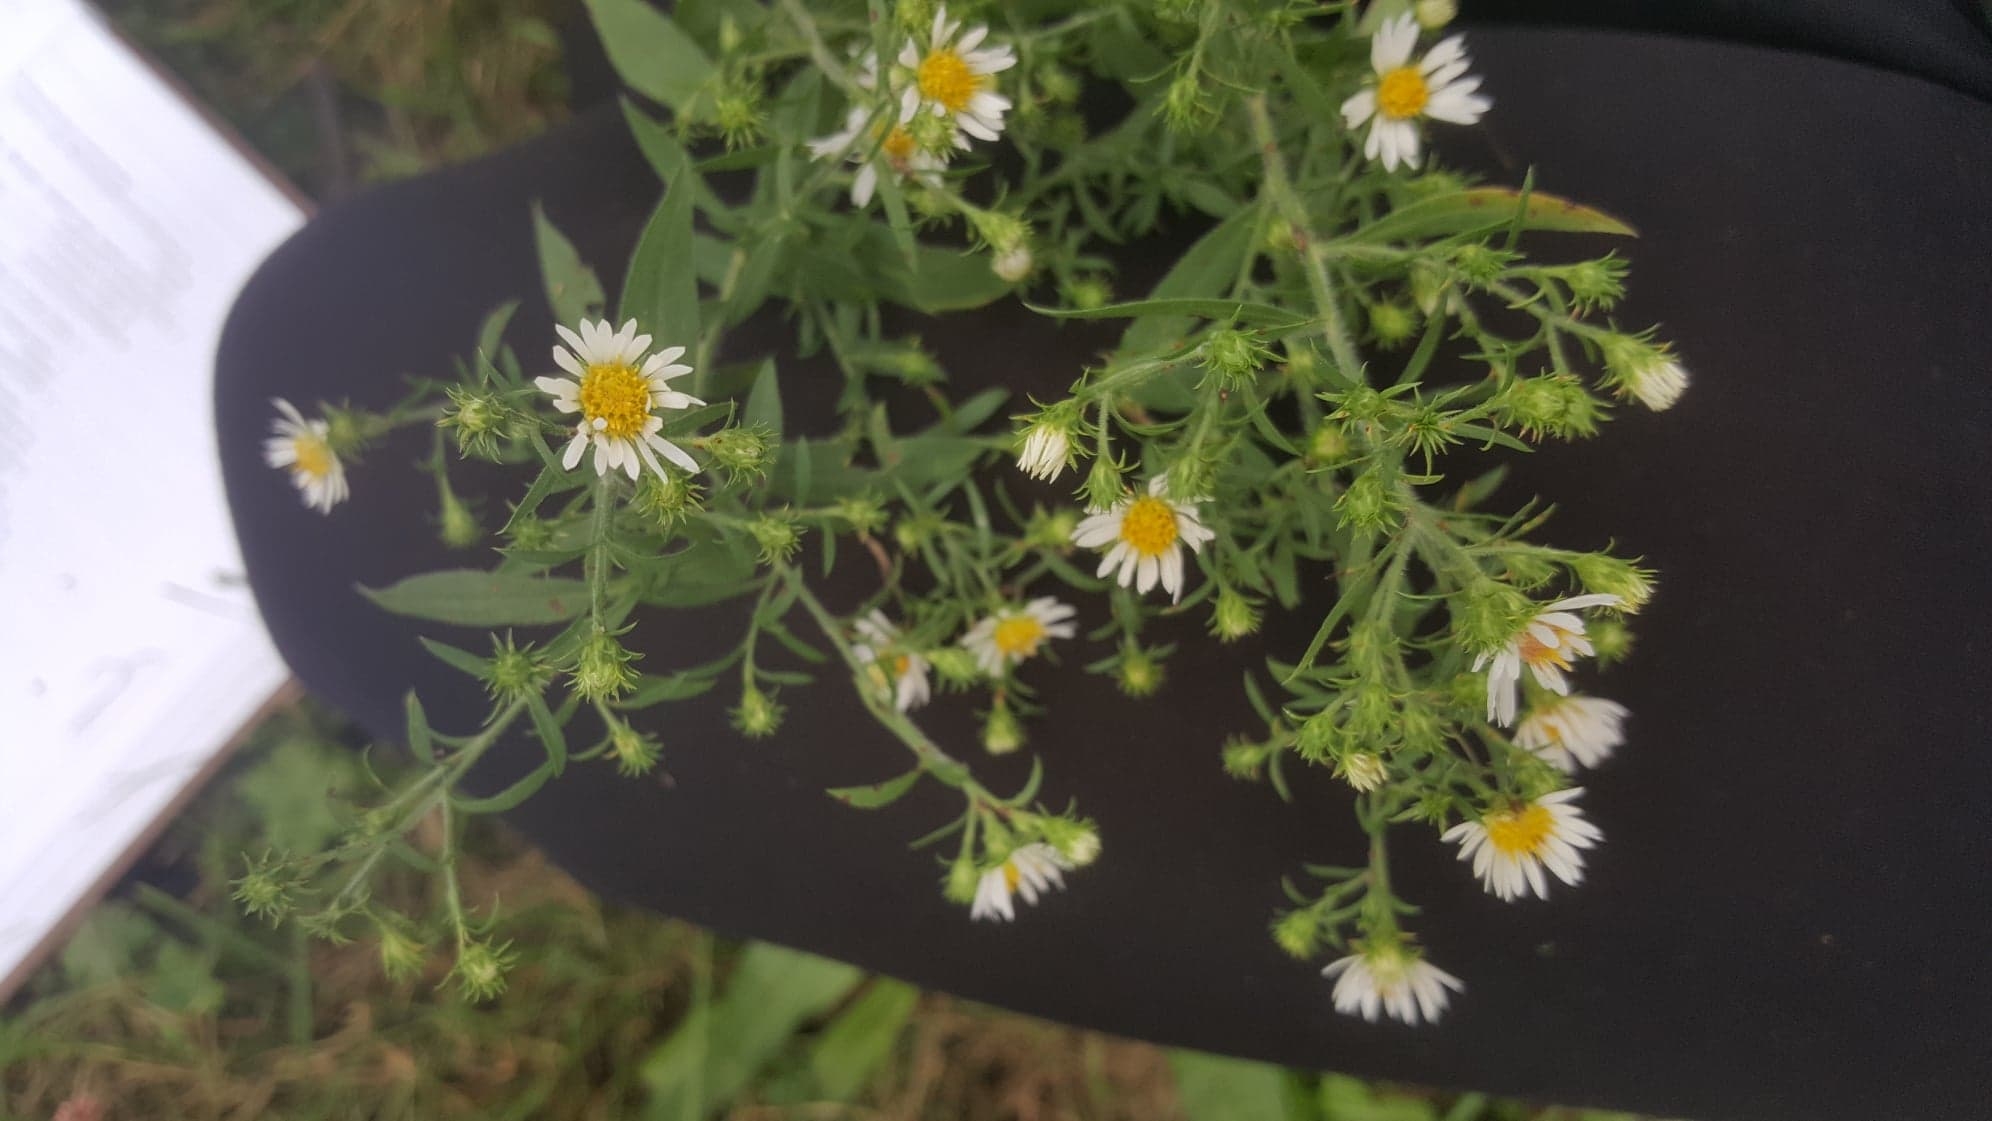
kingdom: Plantae
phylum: Tracheophyta
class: Magnoliopsida
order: Asterales
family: Asteraceae
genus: Symphyotrichum
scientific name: Symphyotrichum pilosum
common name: Aster
